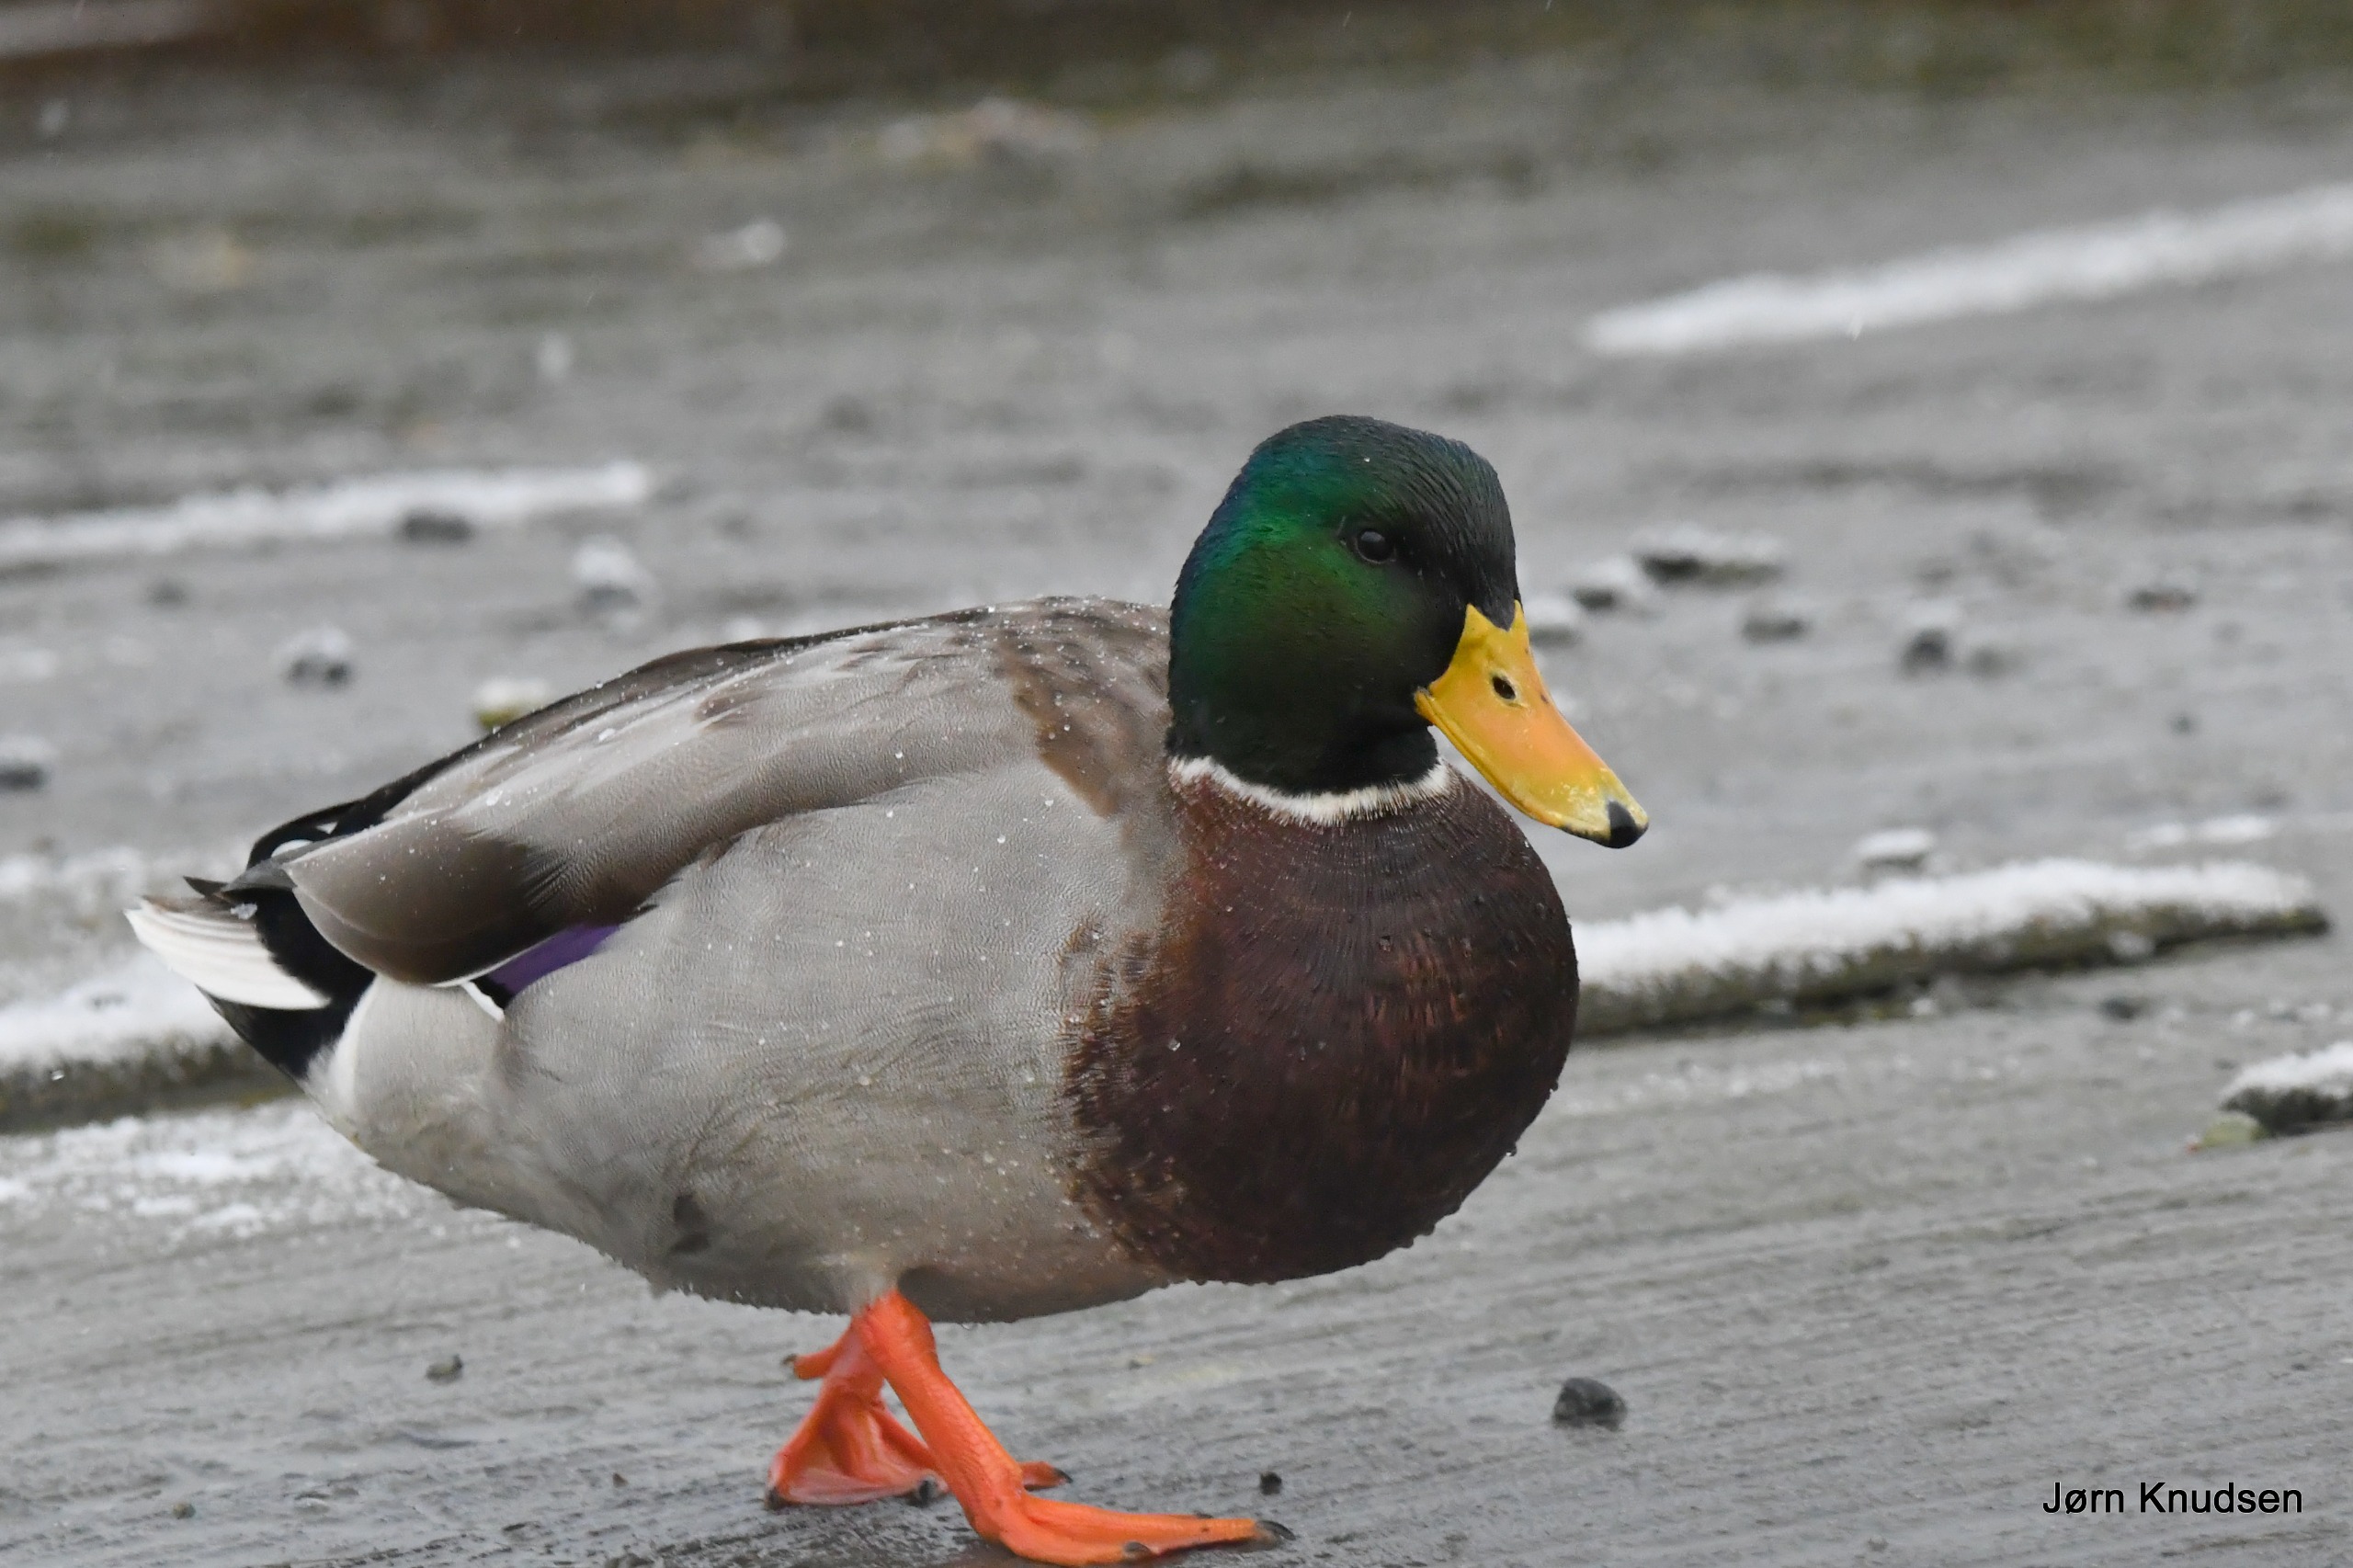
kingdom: Animalia
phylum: Chordata
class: Aves
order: Anseriformes
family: Anatidae
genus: Anas
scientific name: Anas platyrhynchos
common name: Gråand
